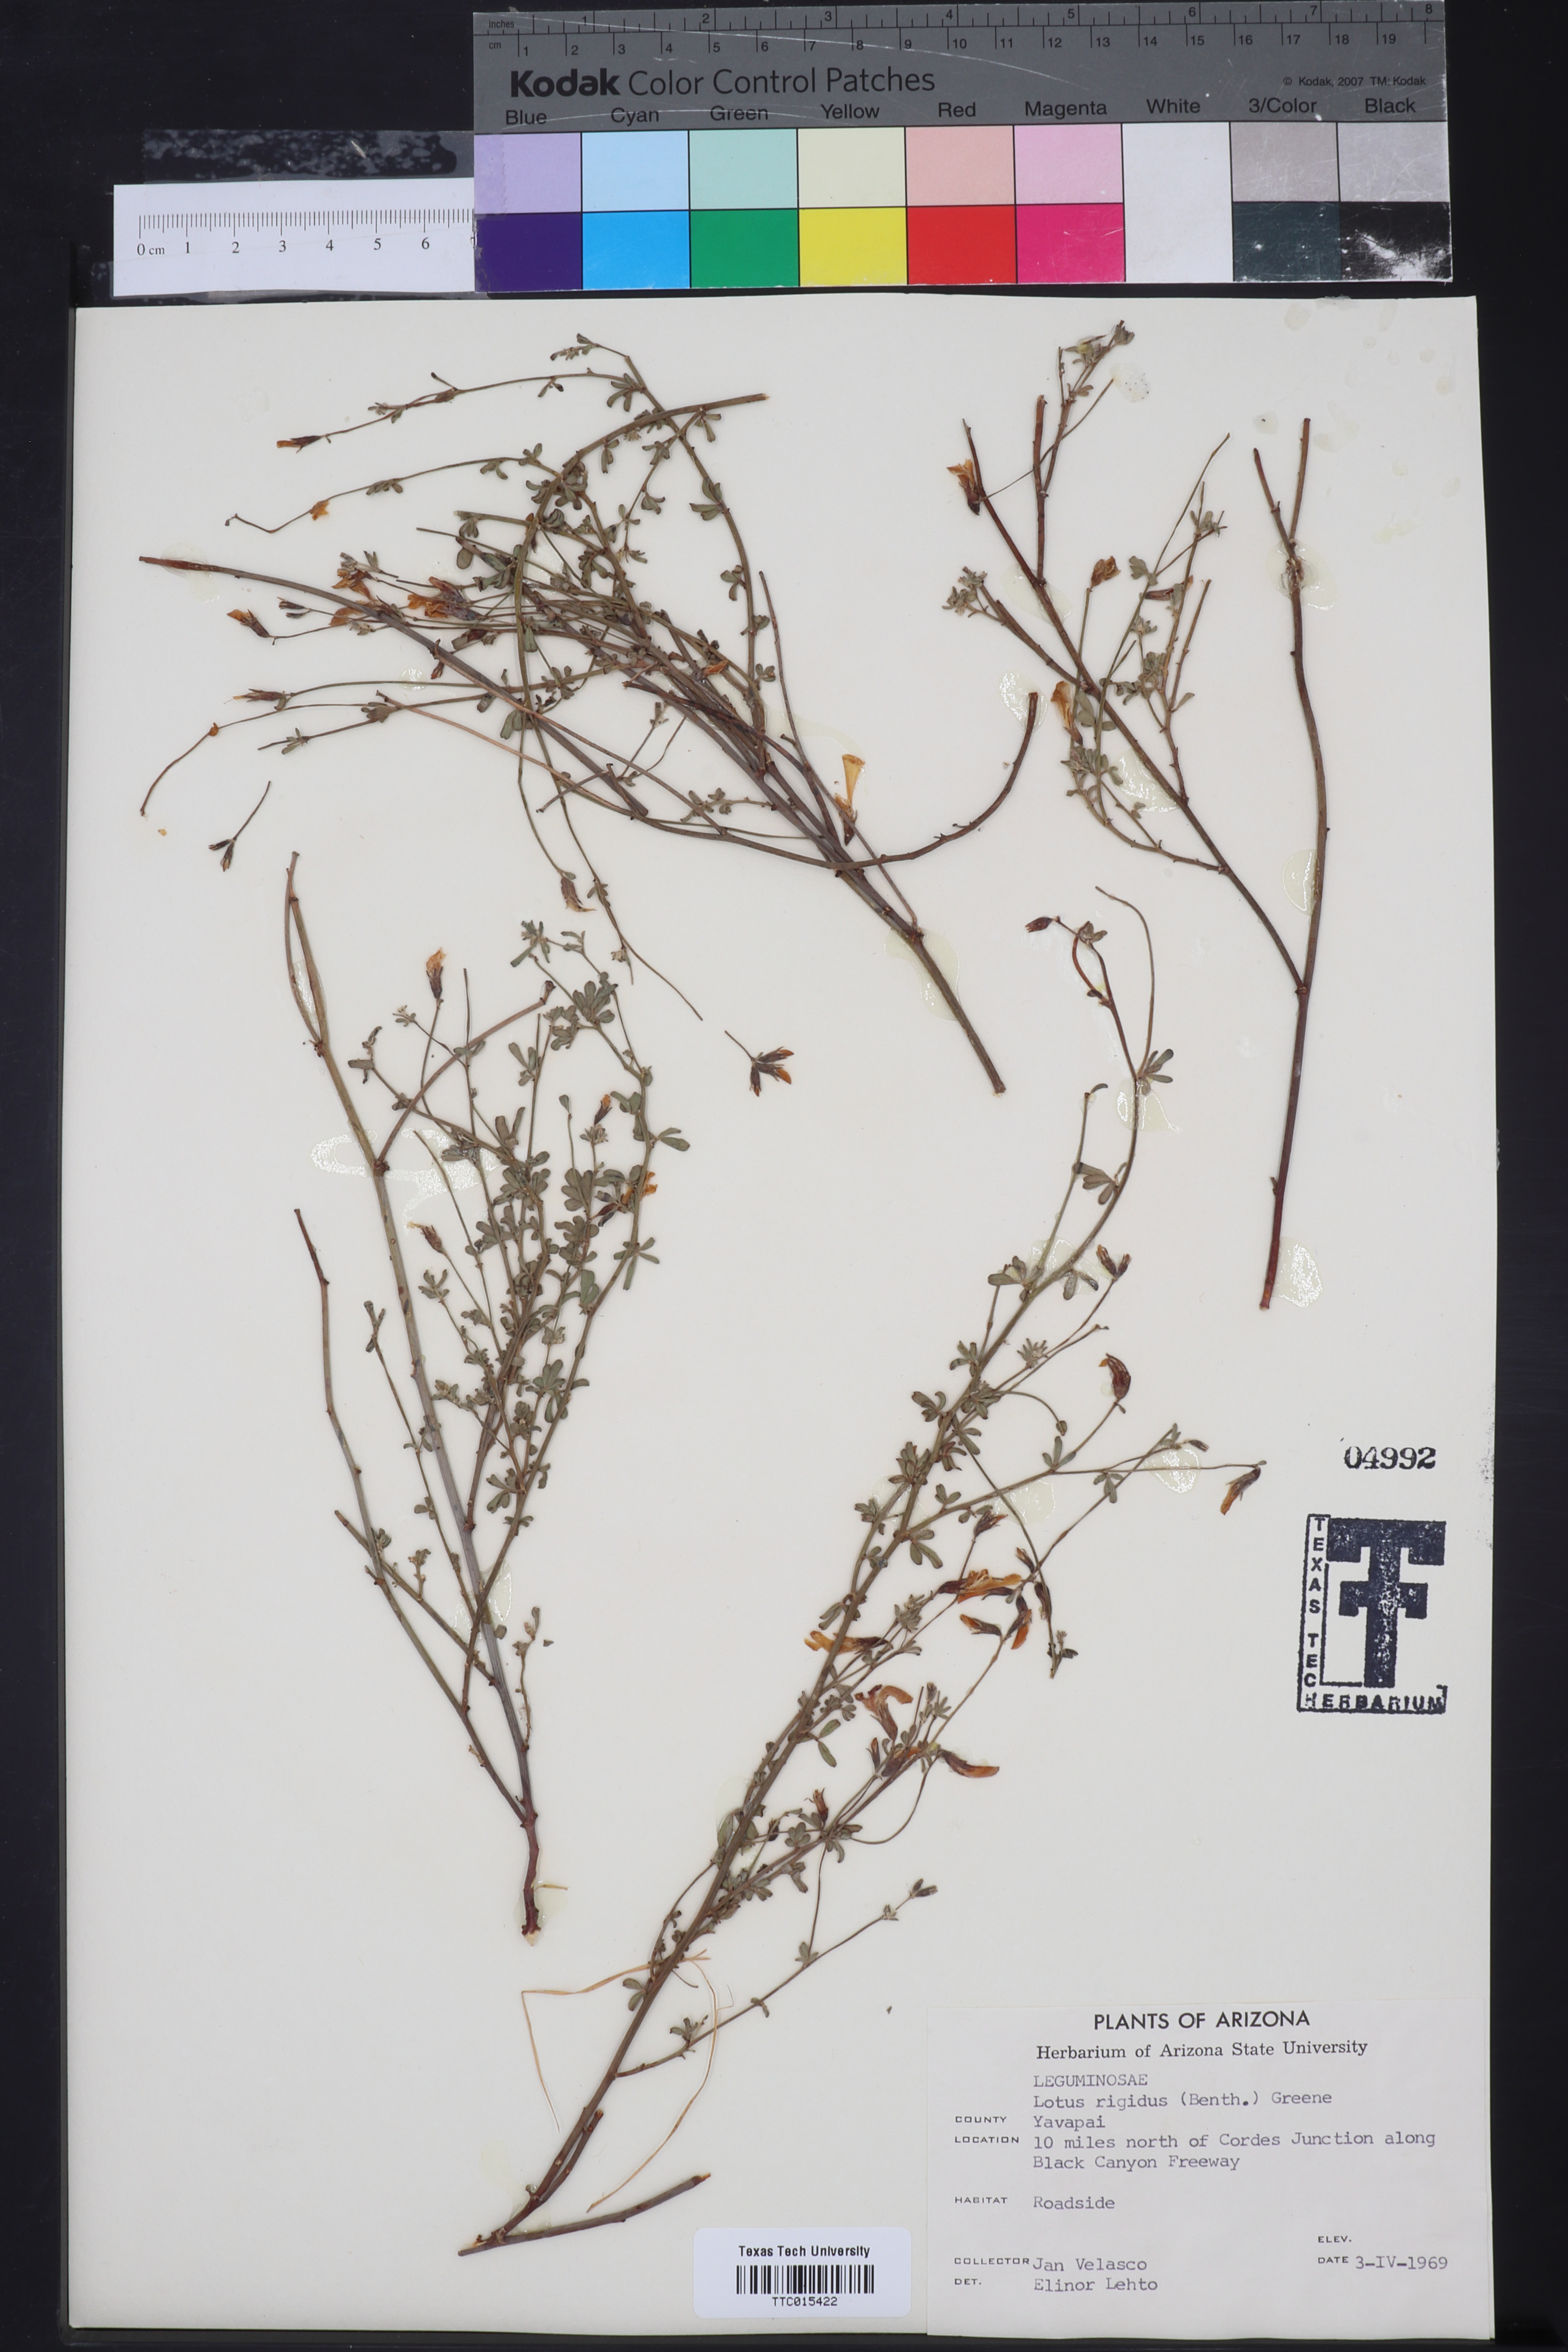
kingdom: Plantae
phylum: Tracheophyta
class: Magnoliopsida
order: Fabales
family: Fabaceae
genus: Acmispon
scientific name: Acmispon rigidus
